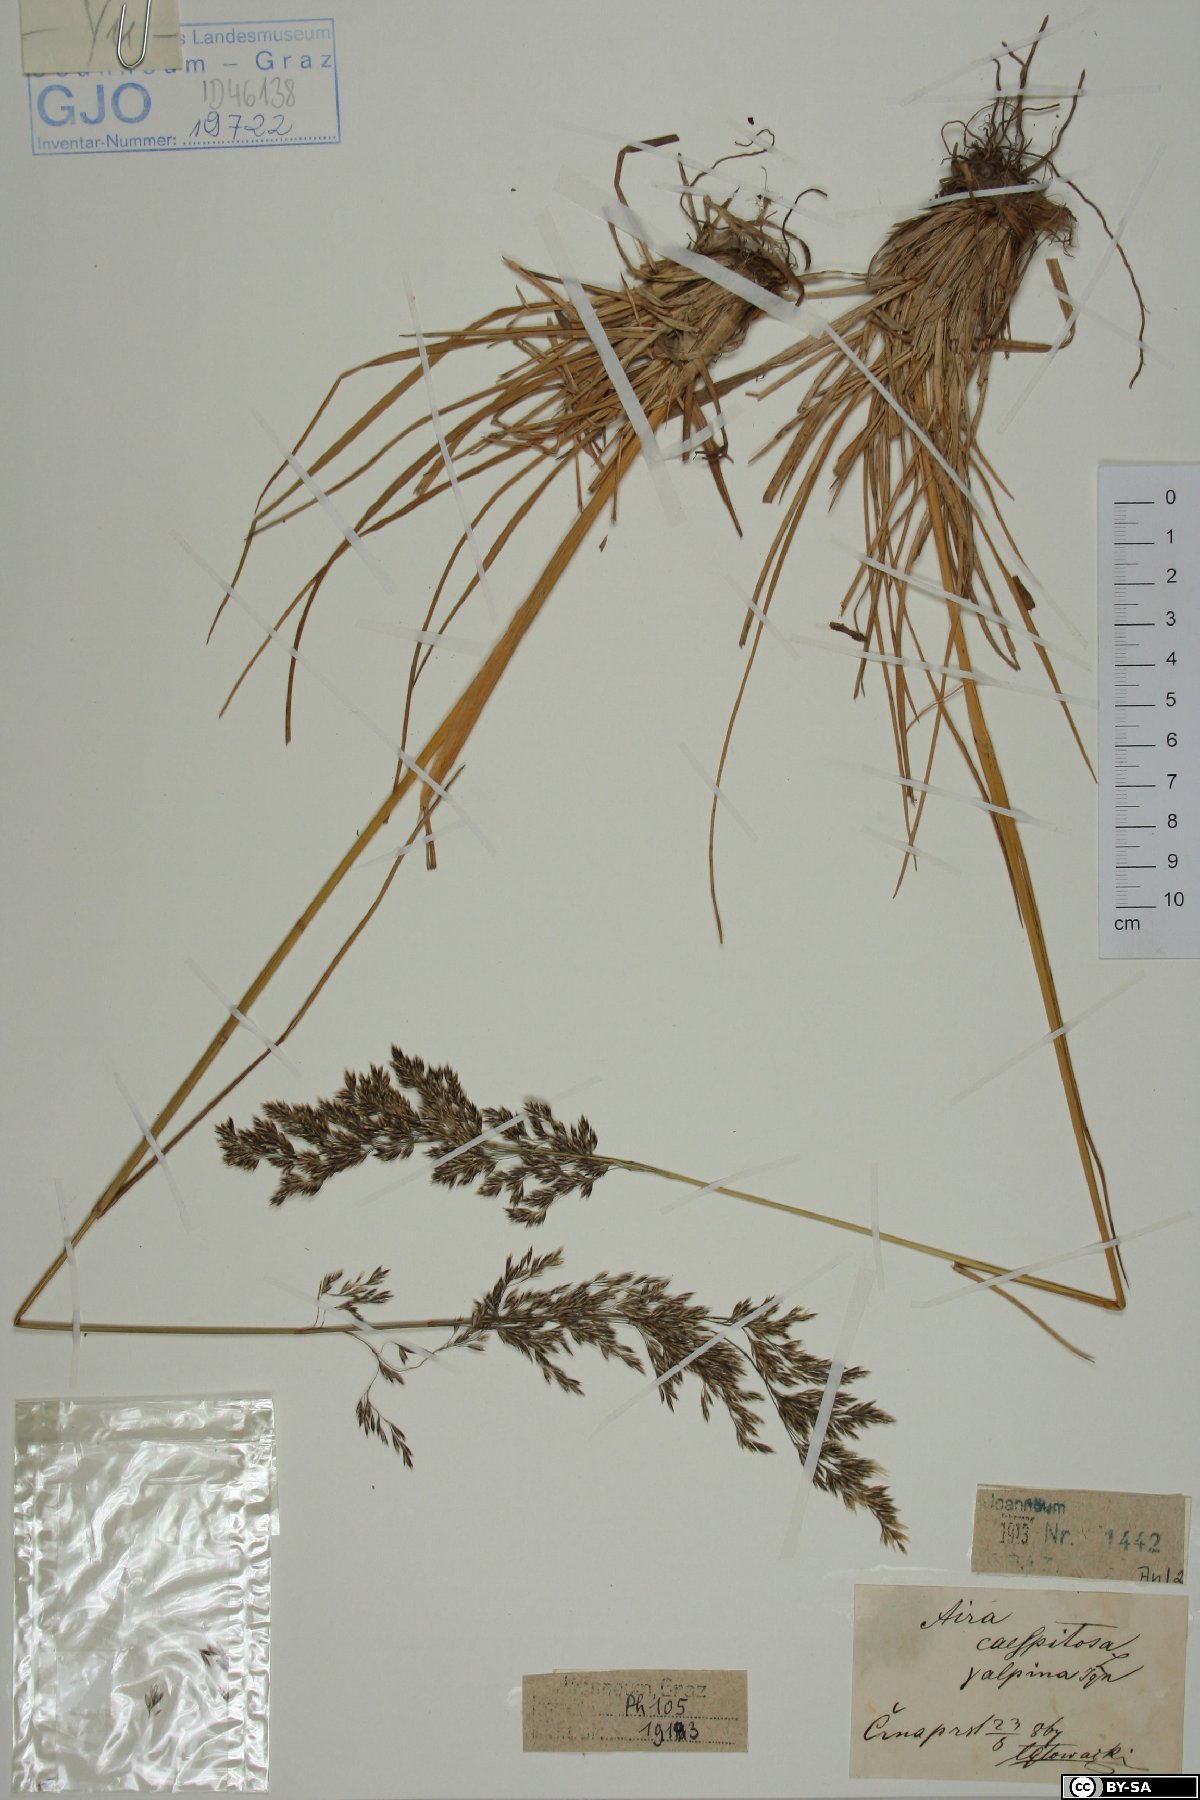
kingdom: Plantae
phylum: Tracheophyta
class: Liliopsida
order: Poales
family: Poaceae
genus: Deschampsia
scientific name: Deschampsia cespitosa
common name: Tufted hair-grass
